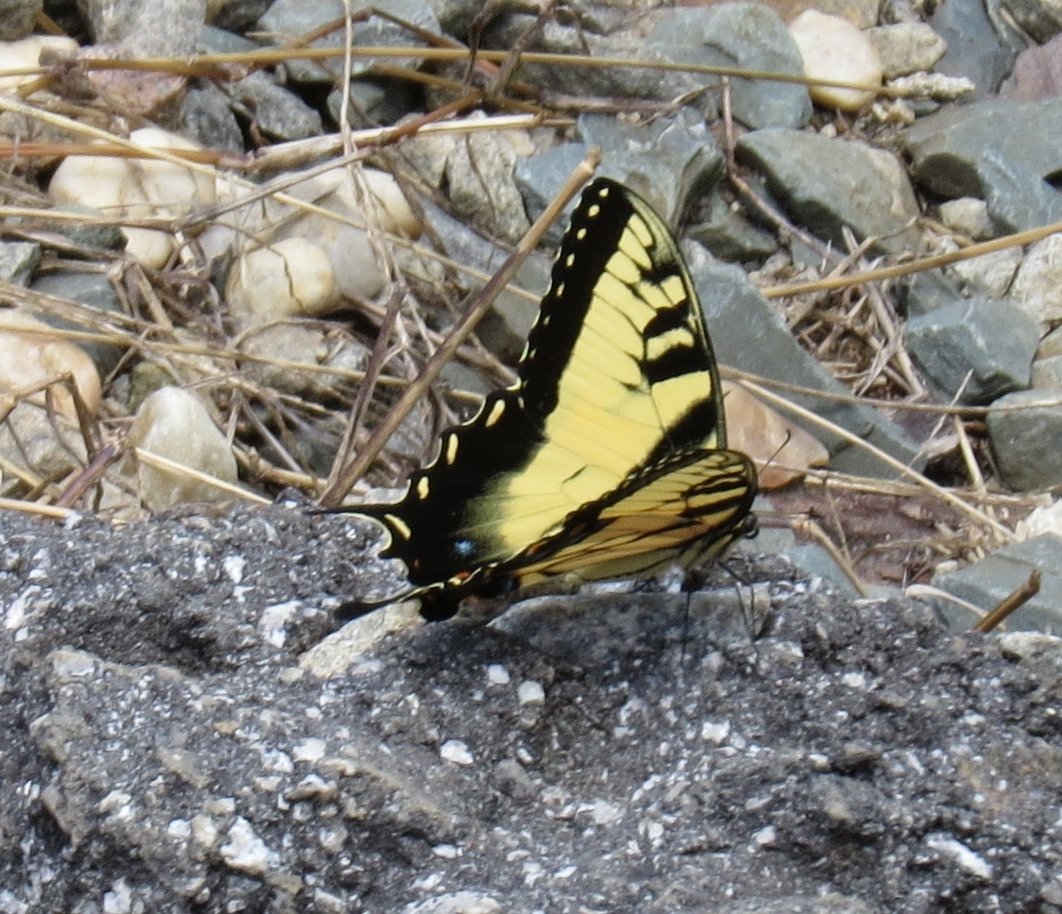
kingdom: Animalia
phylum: Arthropoda
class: Insecta
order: Lepidoptera
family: Papilionidae
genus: Pterourus
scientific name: Pterourus glaucus
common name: Eastern Tiger Swallowtail
